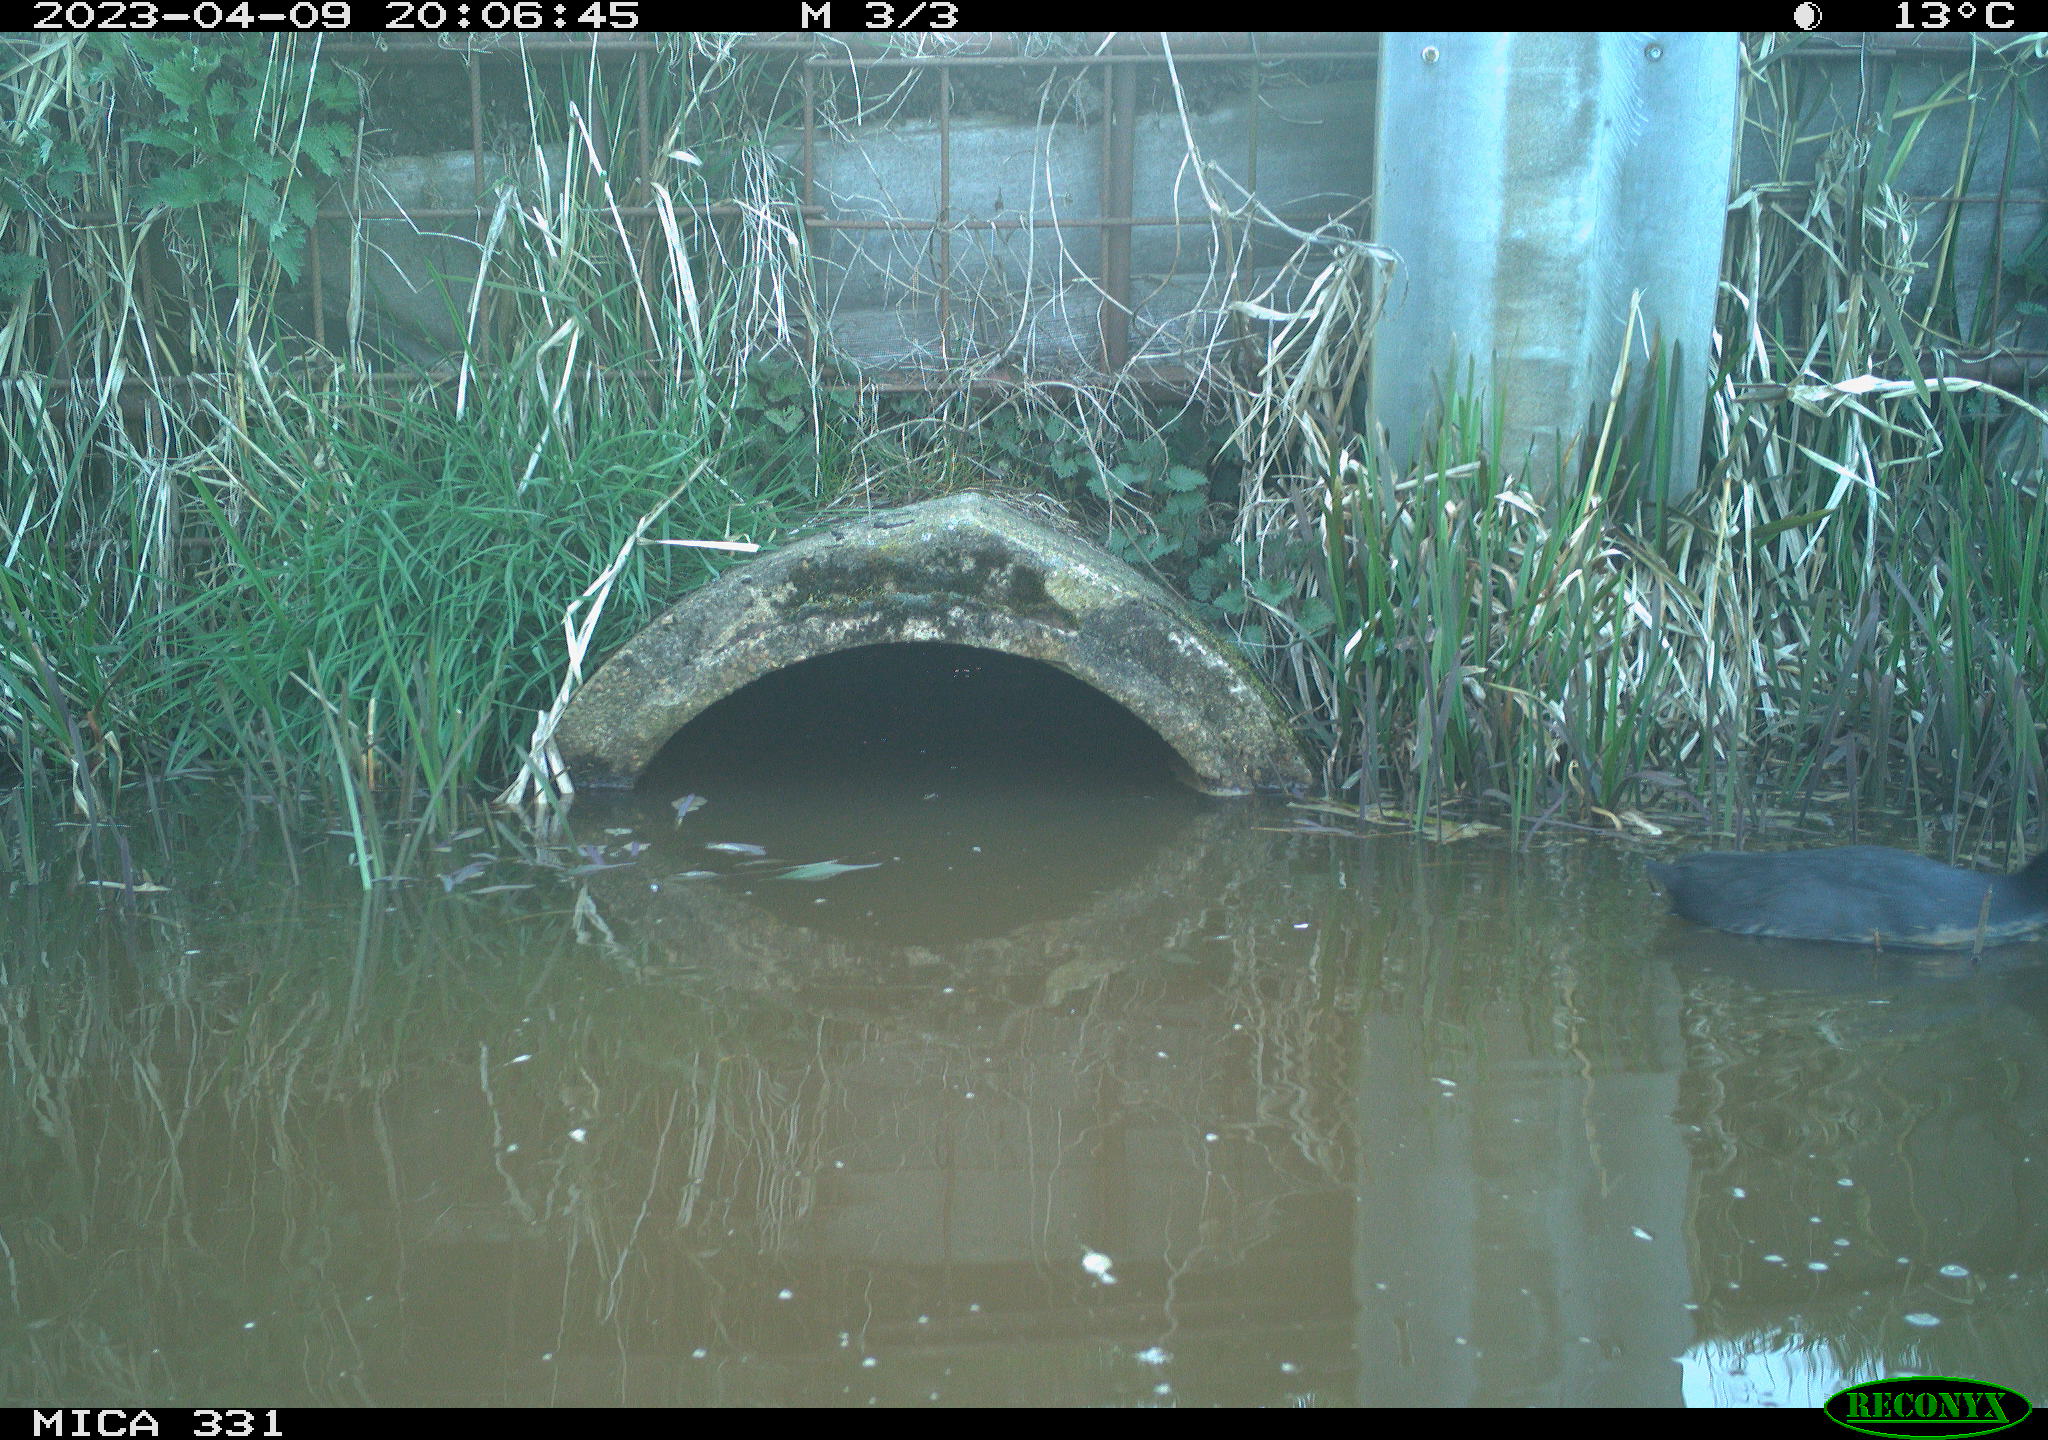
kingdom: Animalia
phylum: Chordata
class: Aves
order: Gruiformes
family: Rallidae
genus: Fulica
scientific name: Fulica atra
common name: Eurasian coot
